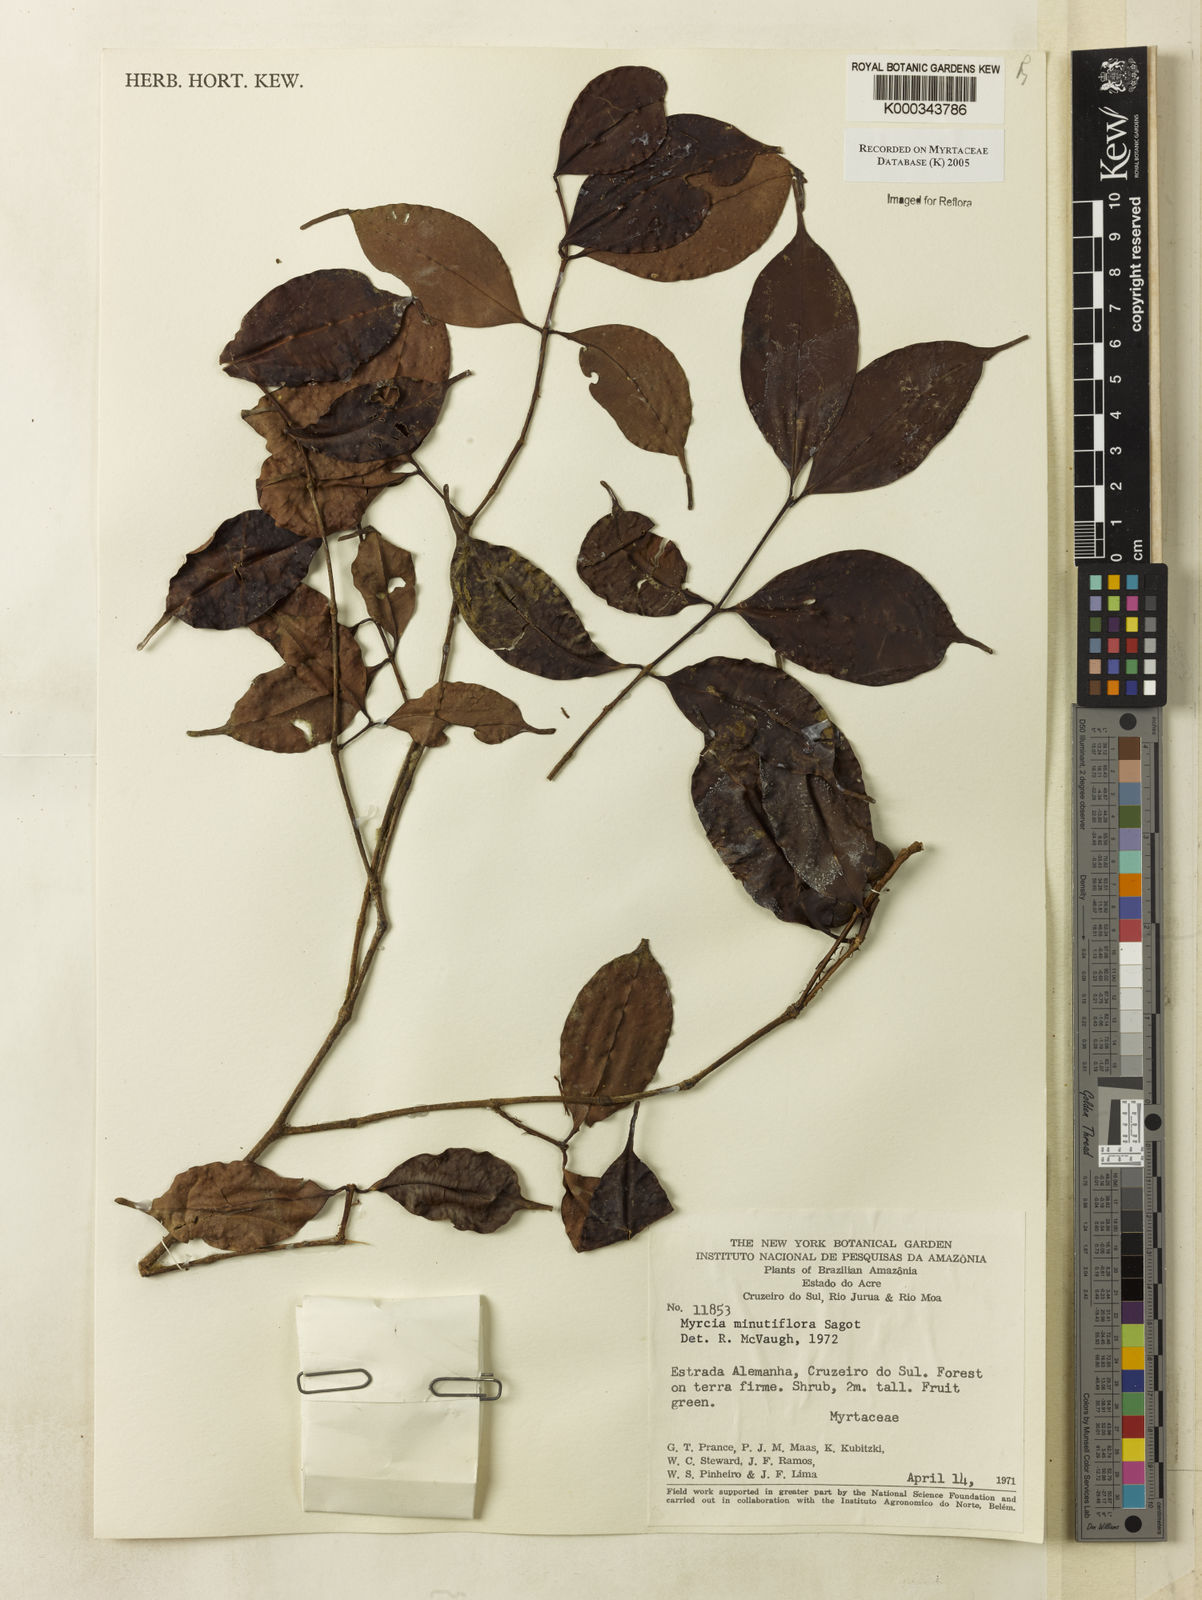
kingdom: Plantae
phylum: Tracheophyta
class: Magnoliopsida
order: Myrtales
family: Myrtaceae
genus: Myrcia
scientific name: Myrcia minutiflora
